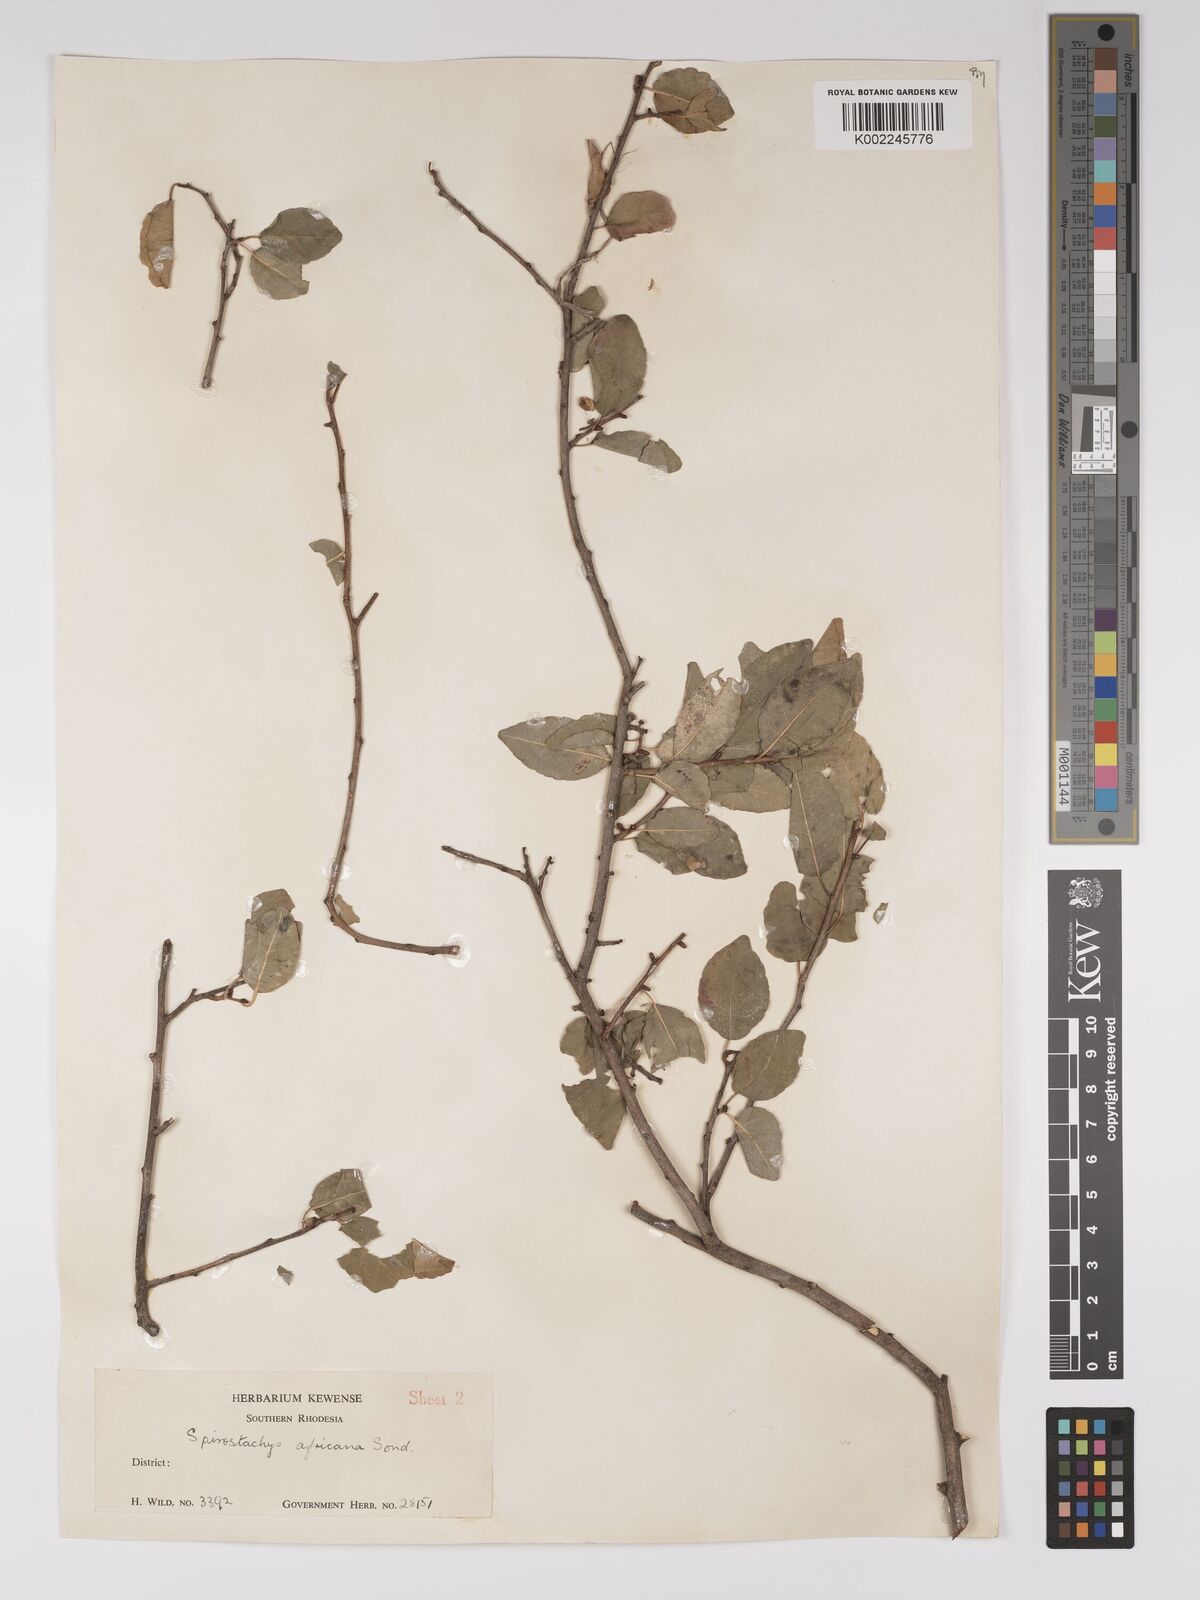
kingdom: Plantae
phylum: Tracheophyta
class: Magnoliopsida
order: Malpighiales
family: Euphorbiaceae
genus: Spirostachys
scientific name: Spirostachys africana
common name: Tamboti
